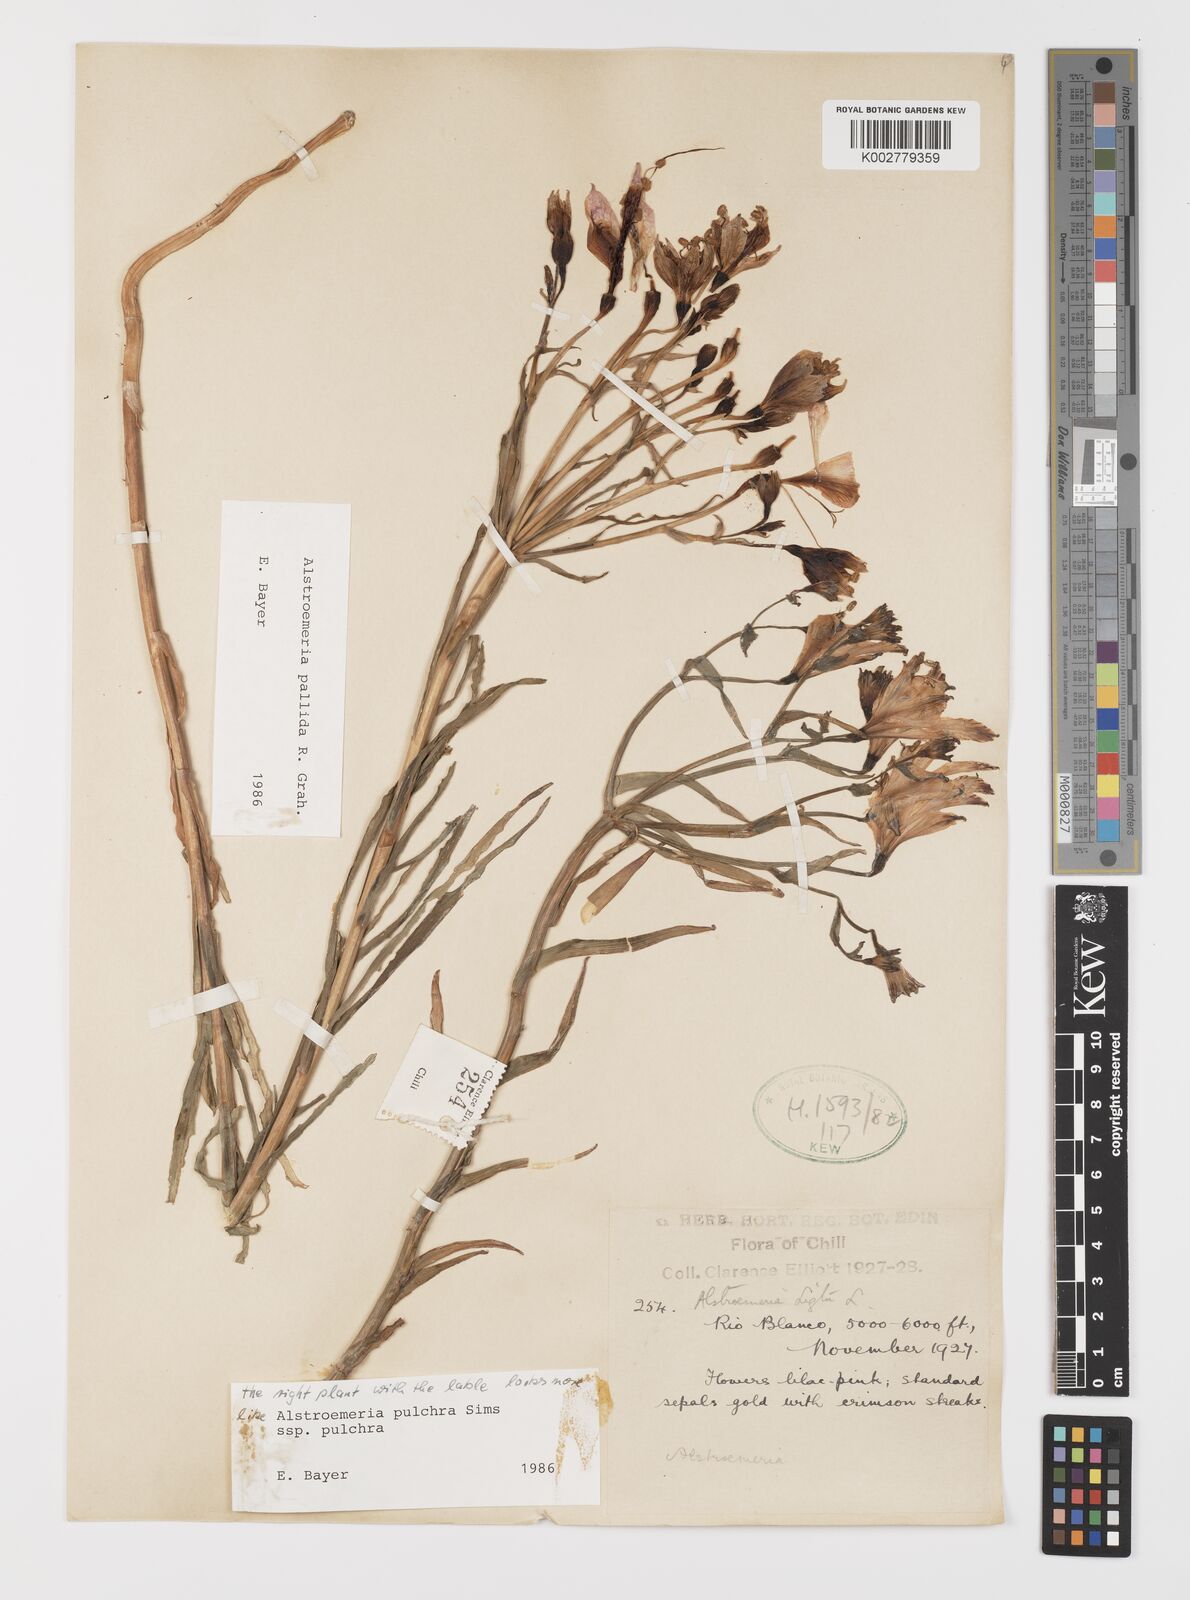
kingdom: Plantae
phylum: Tracheophyta
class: Liliopsida
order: Liliales
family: Alstroemeriaceae
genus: Alstroemeria
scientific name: Alstroemeria pallida
